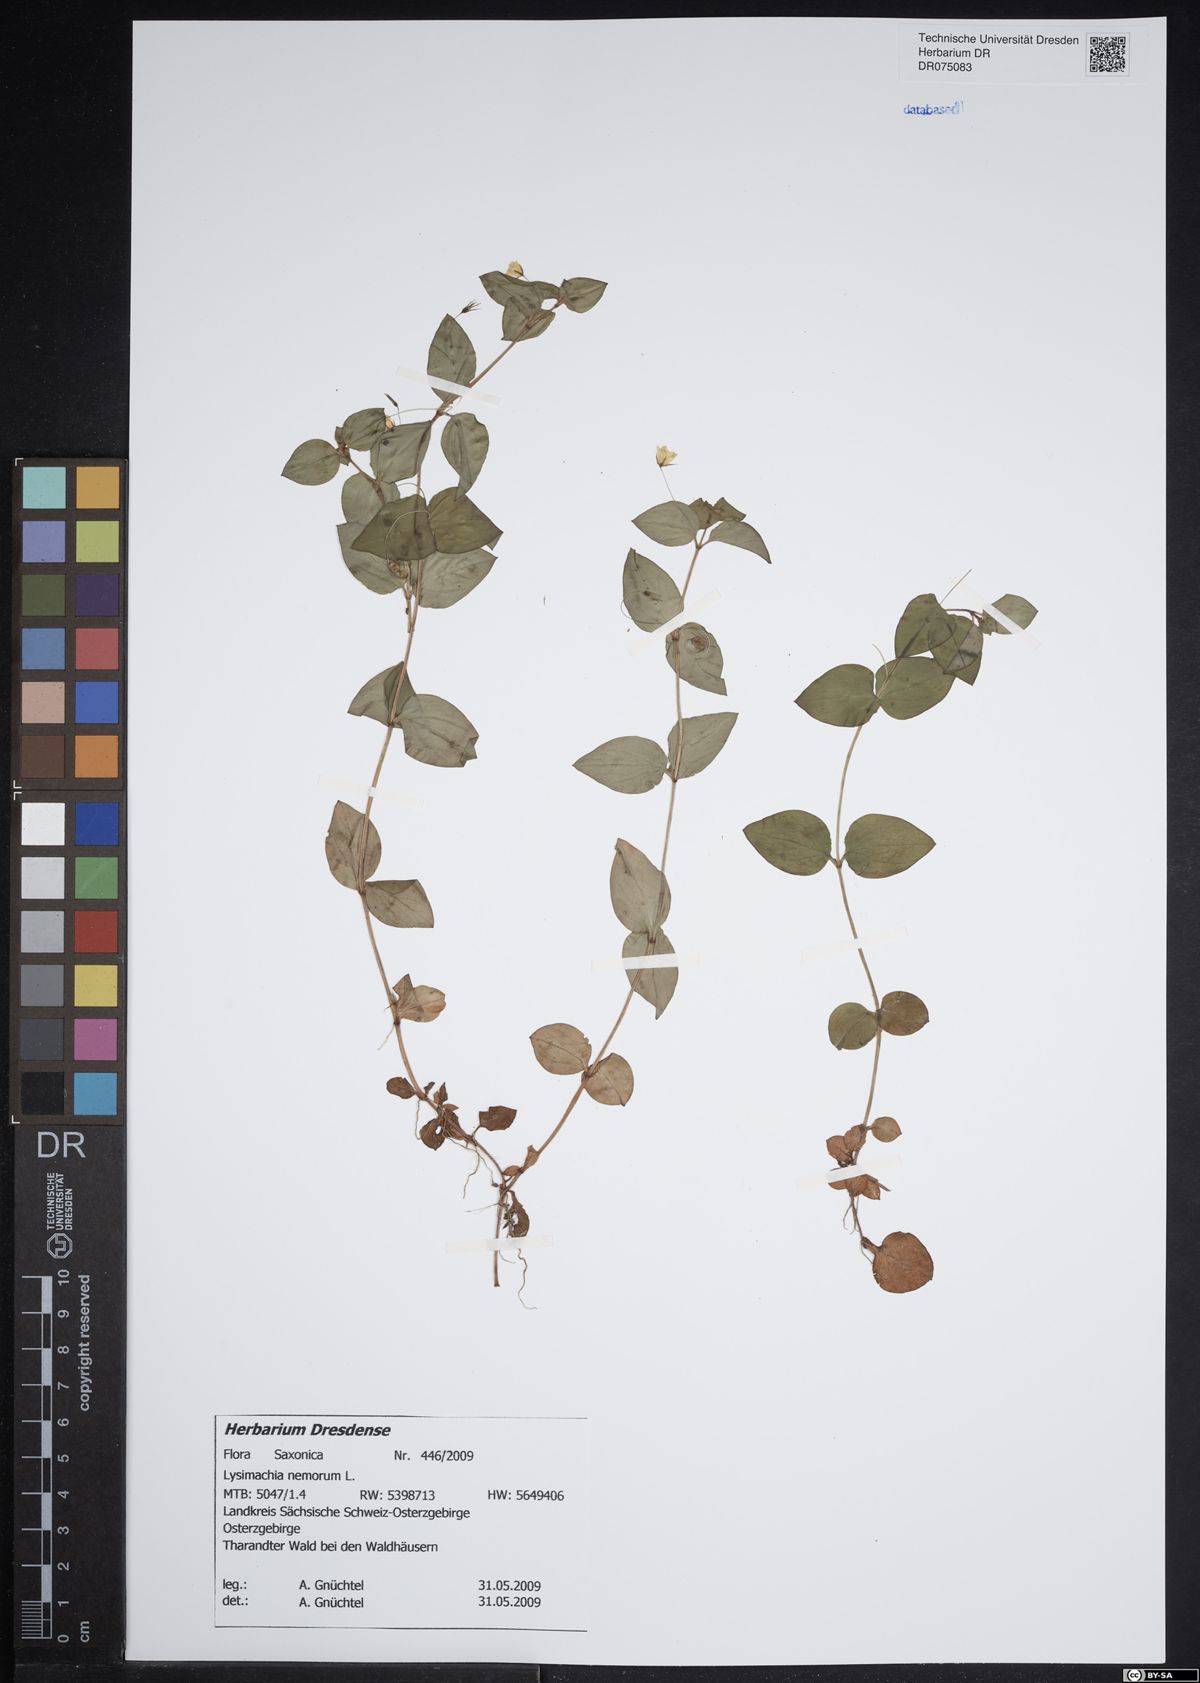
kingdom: Plantae
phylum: Tracheophyta
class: Magnoliopsida
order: Ericales
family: Primulaceae
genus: Lysimachia
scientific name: Lysimachia nemorum
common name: Yellow pimpernel
